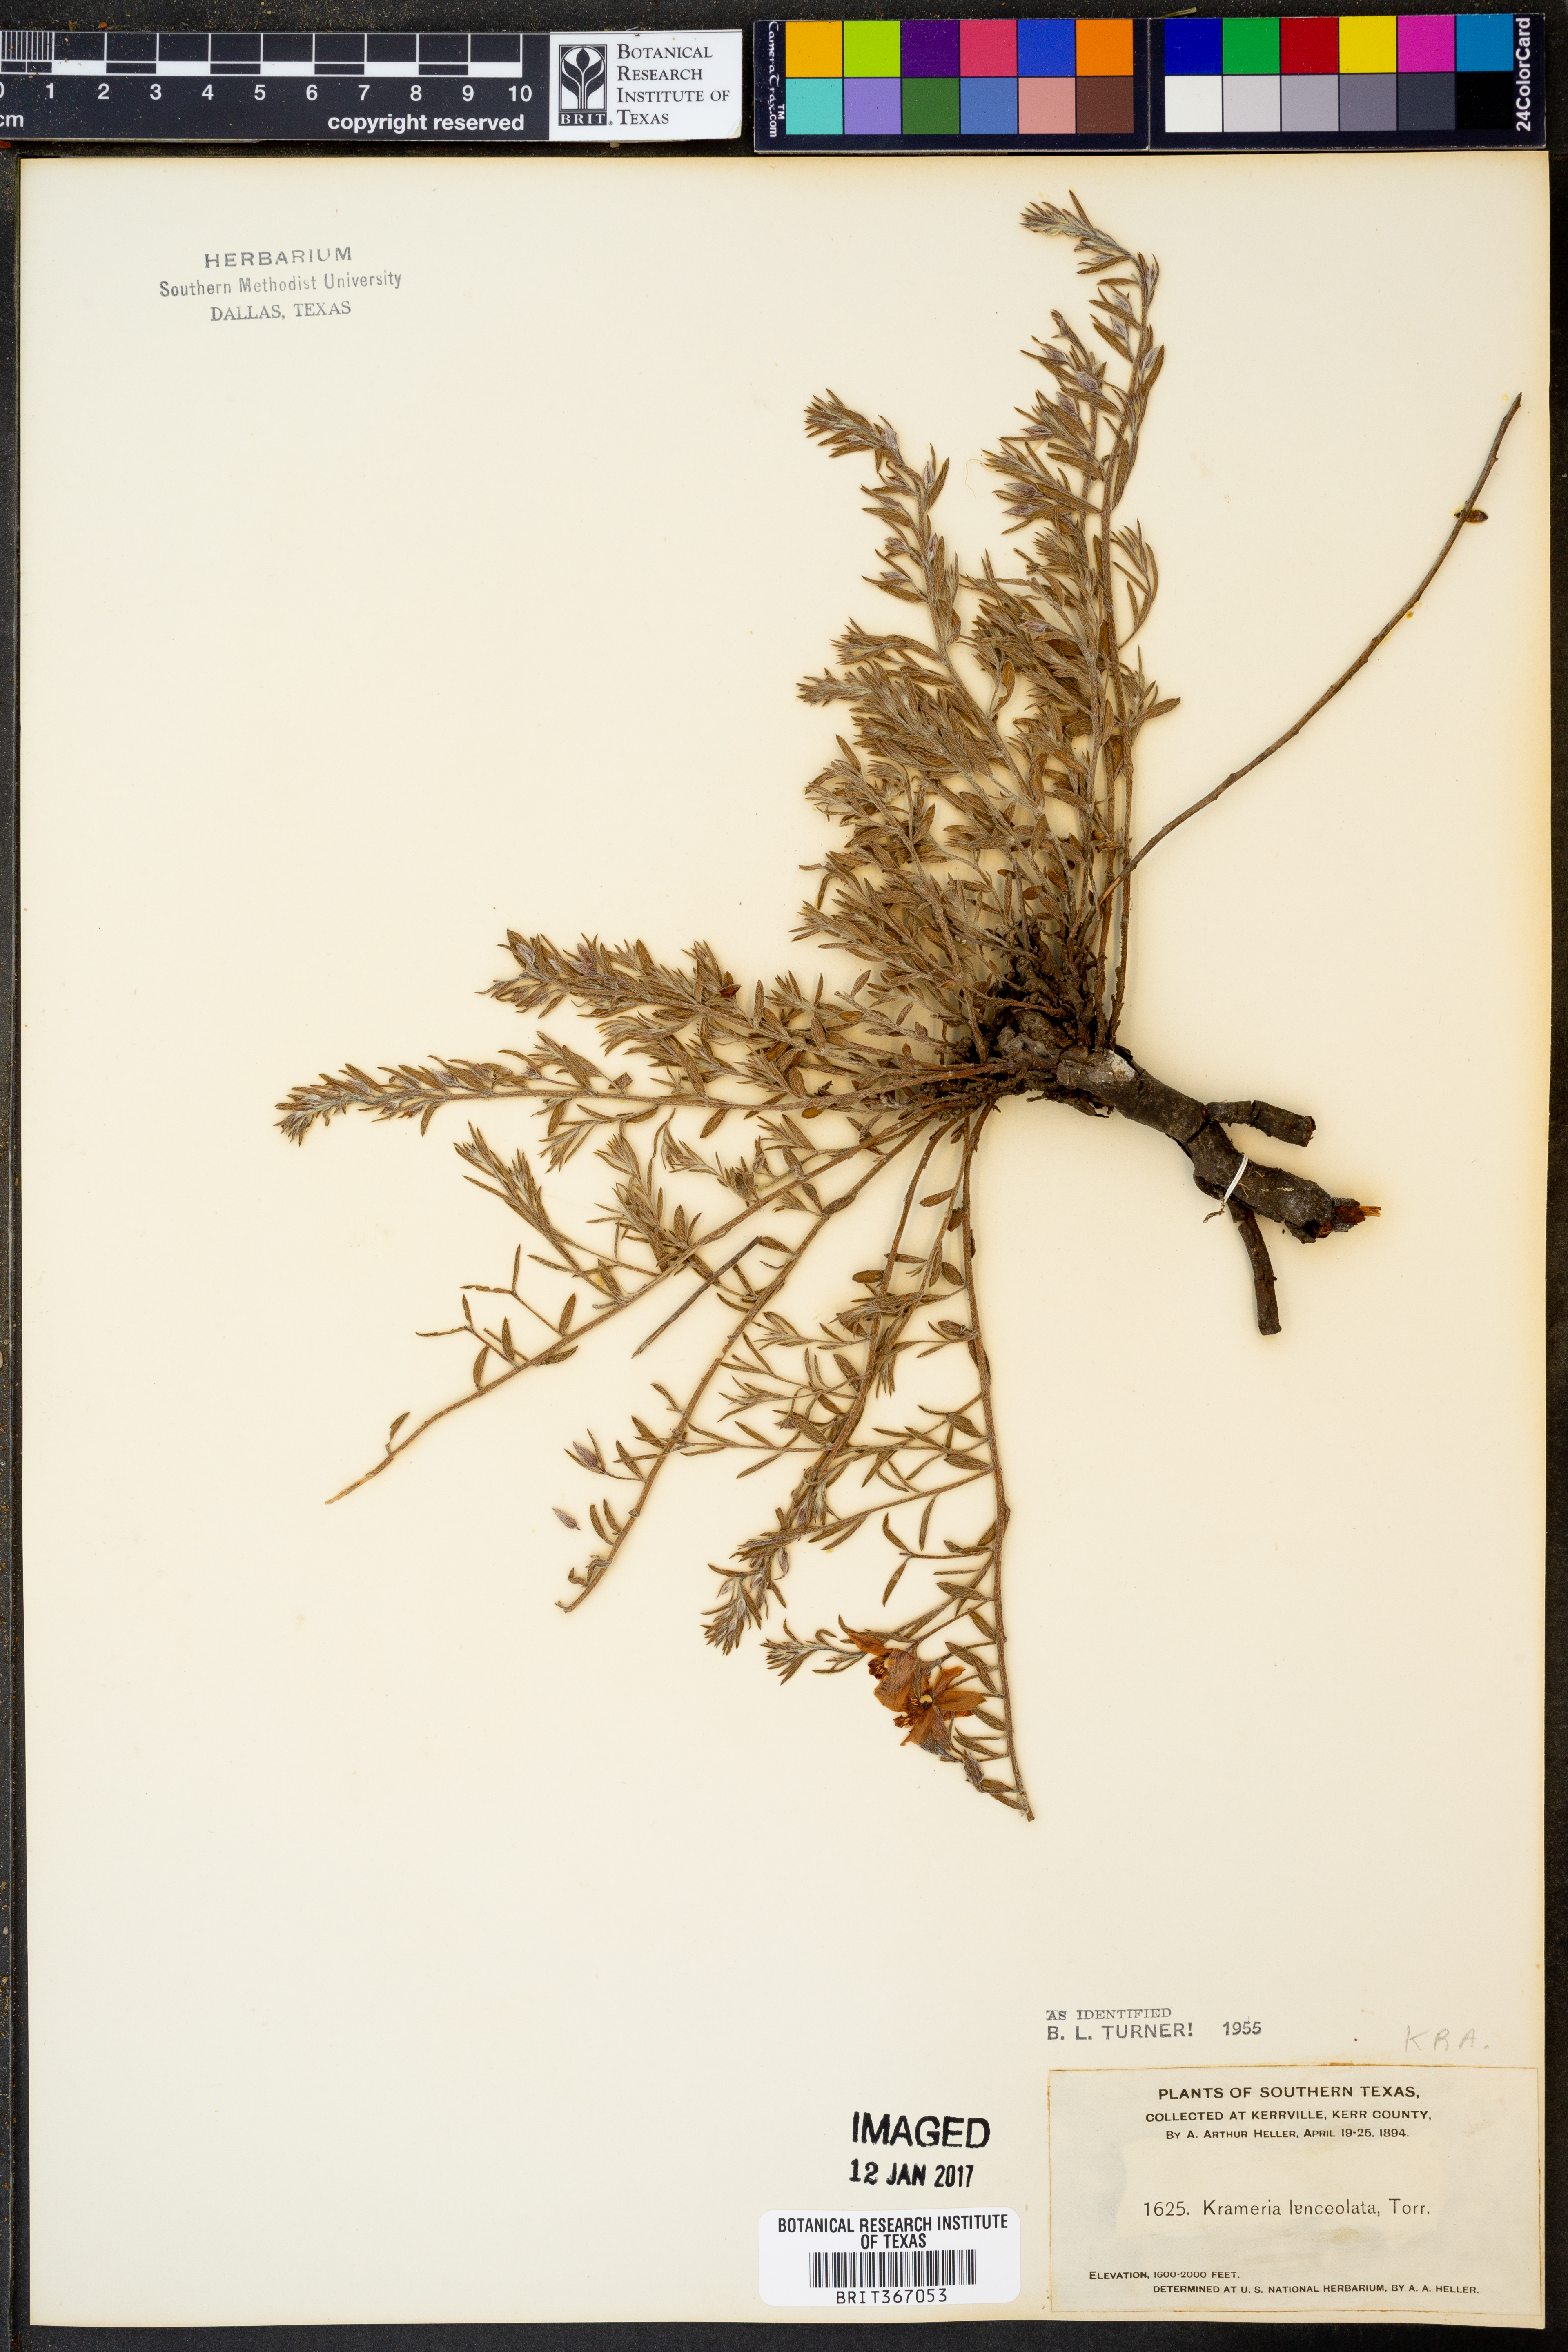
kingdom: Plantae
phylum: Tracheophyta
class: Magnoliopsida
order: Zygophyllales
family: Krameriaceae
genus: Krameria
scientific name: Krameria lanceolata
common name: Ratany
